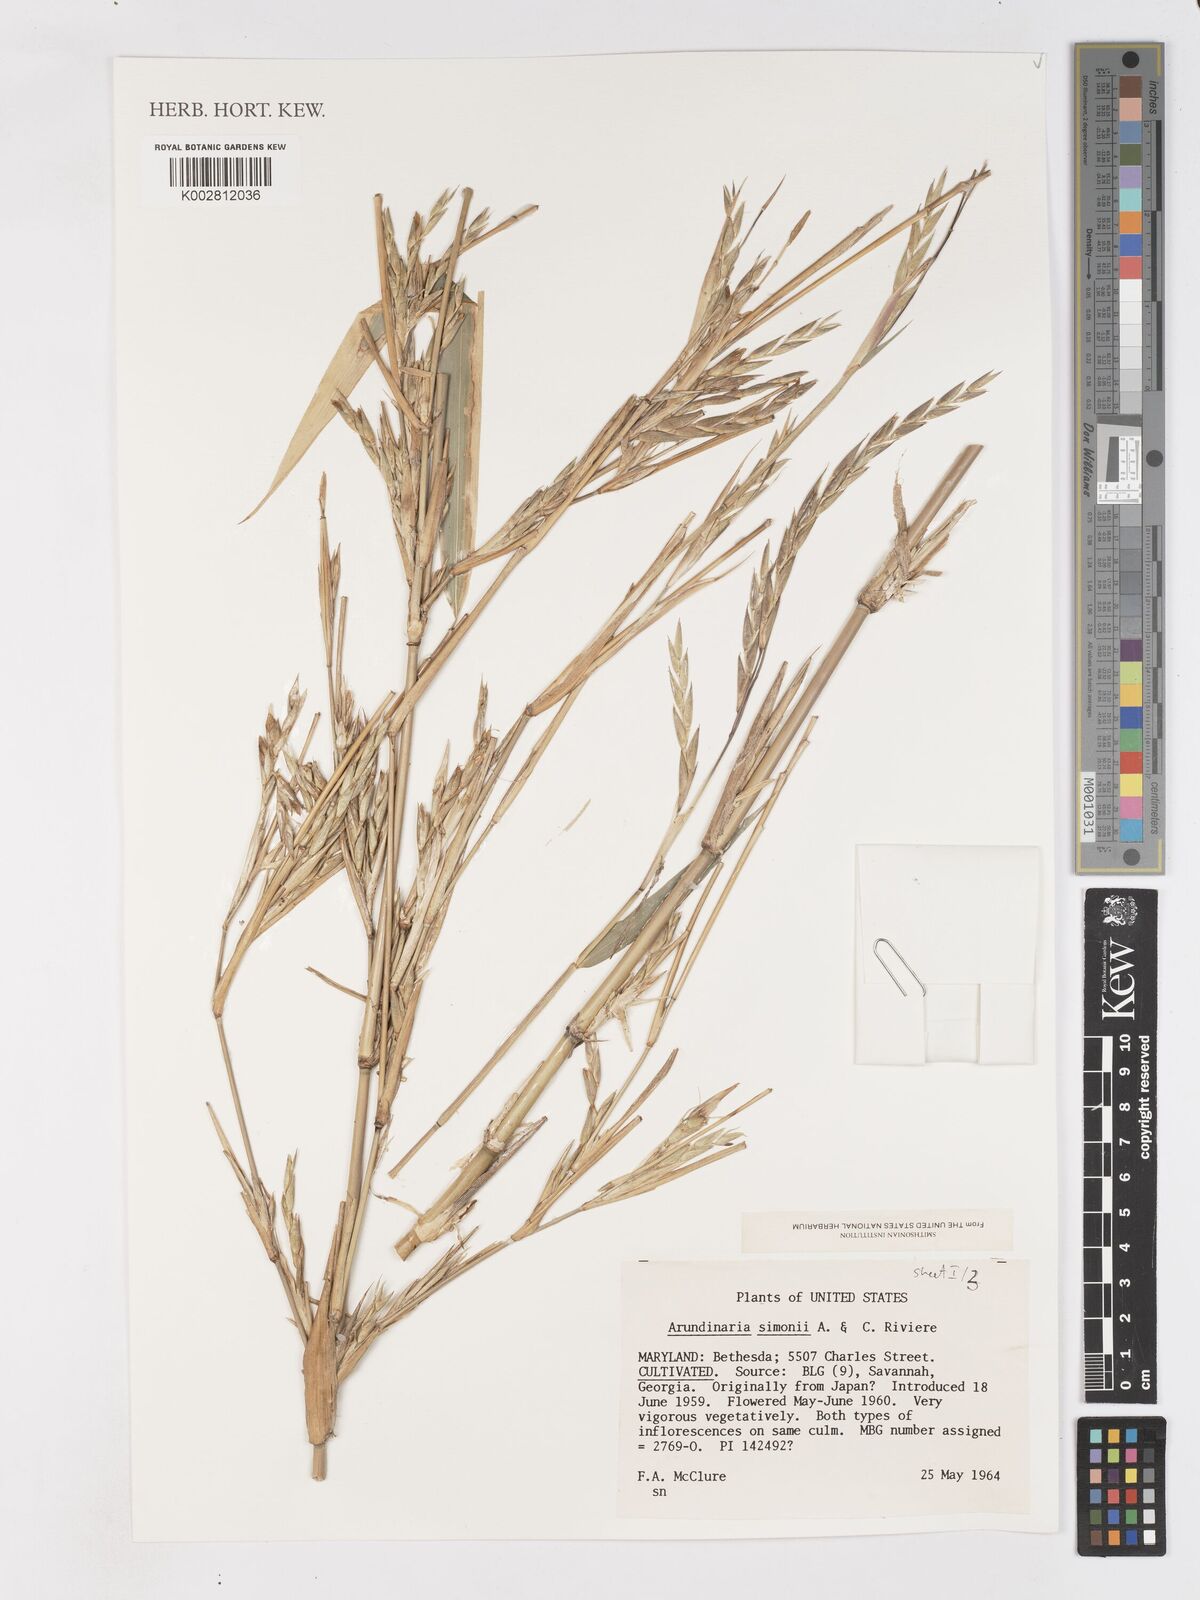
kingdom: Plantae
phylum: Tracheophyta
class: Liliopsida
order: Poales
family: Poaceae
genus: Pleioblastus
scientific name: Pleioblastus simonii
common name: Simon bamboo
